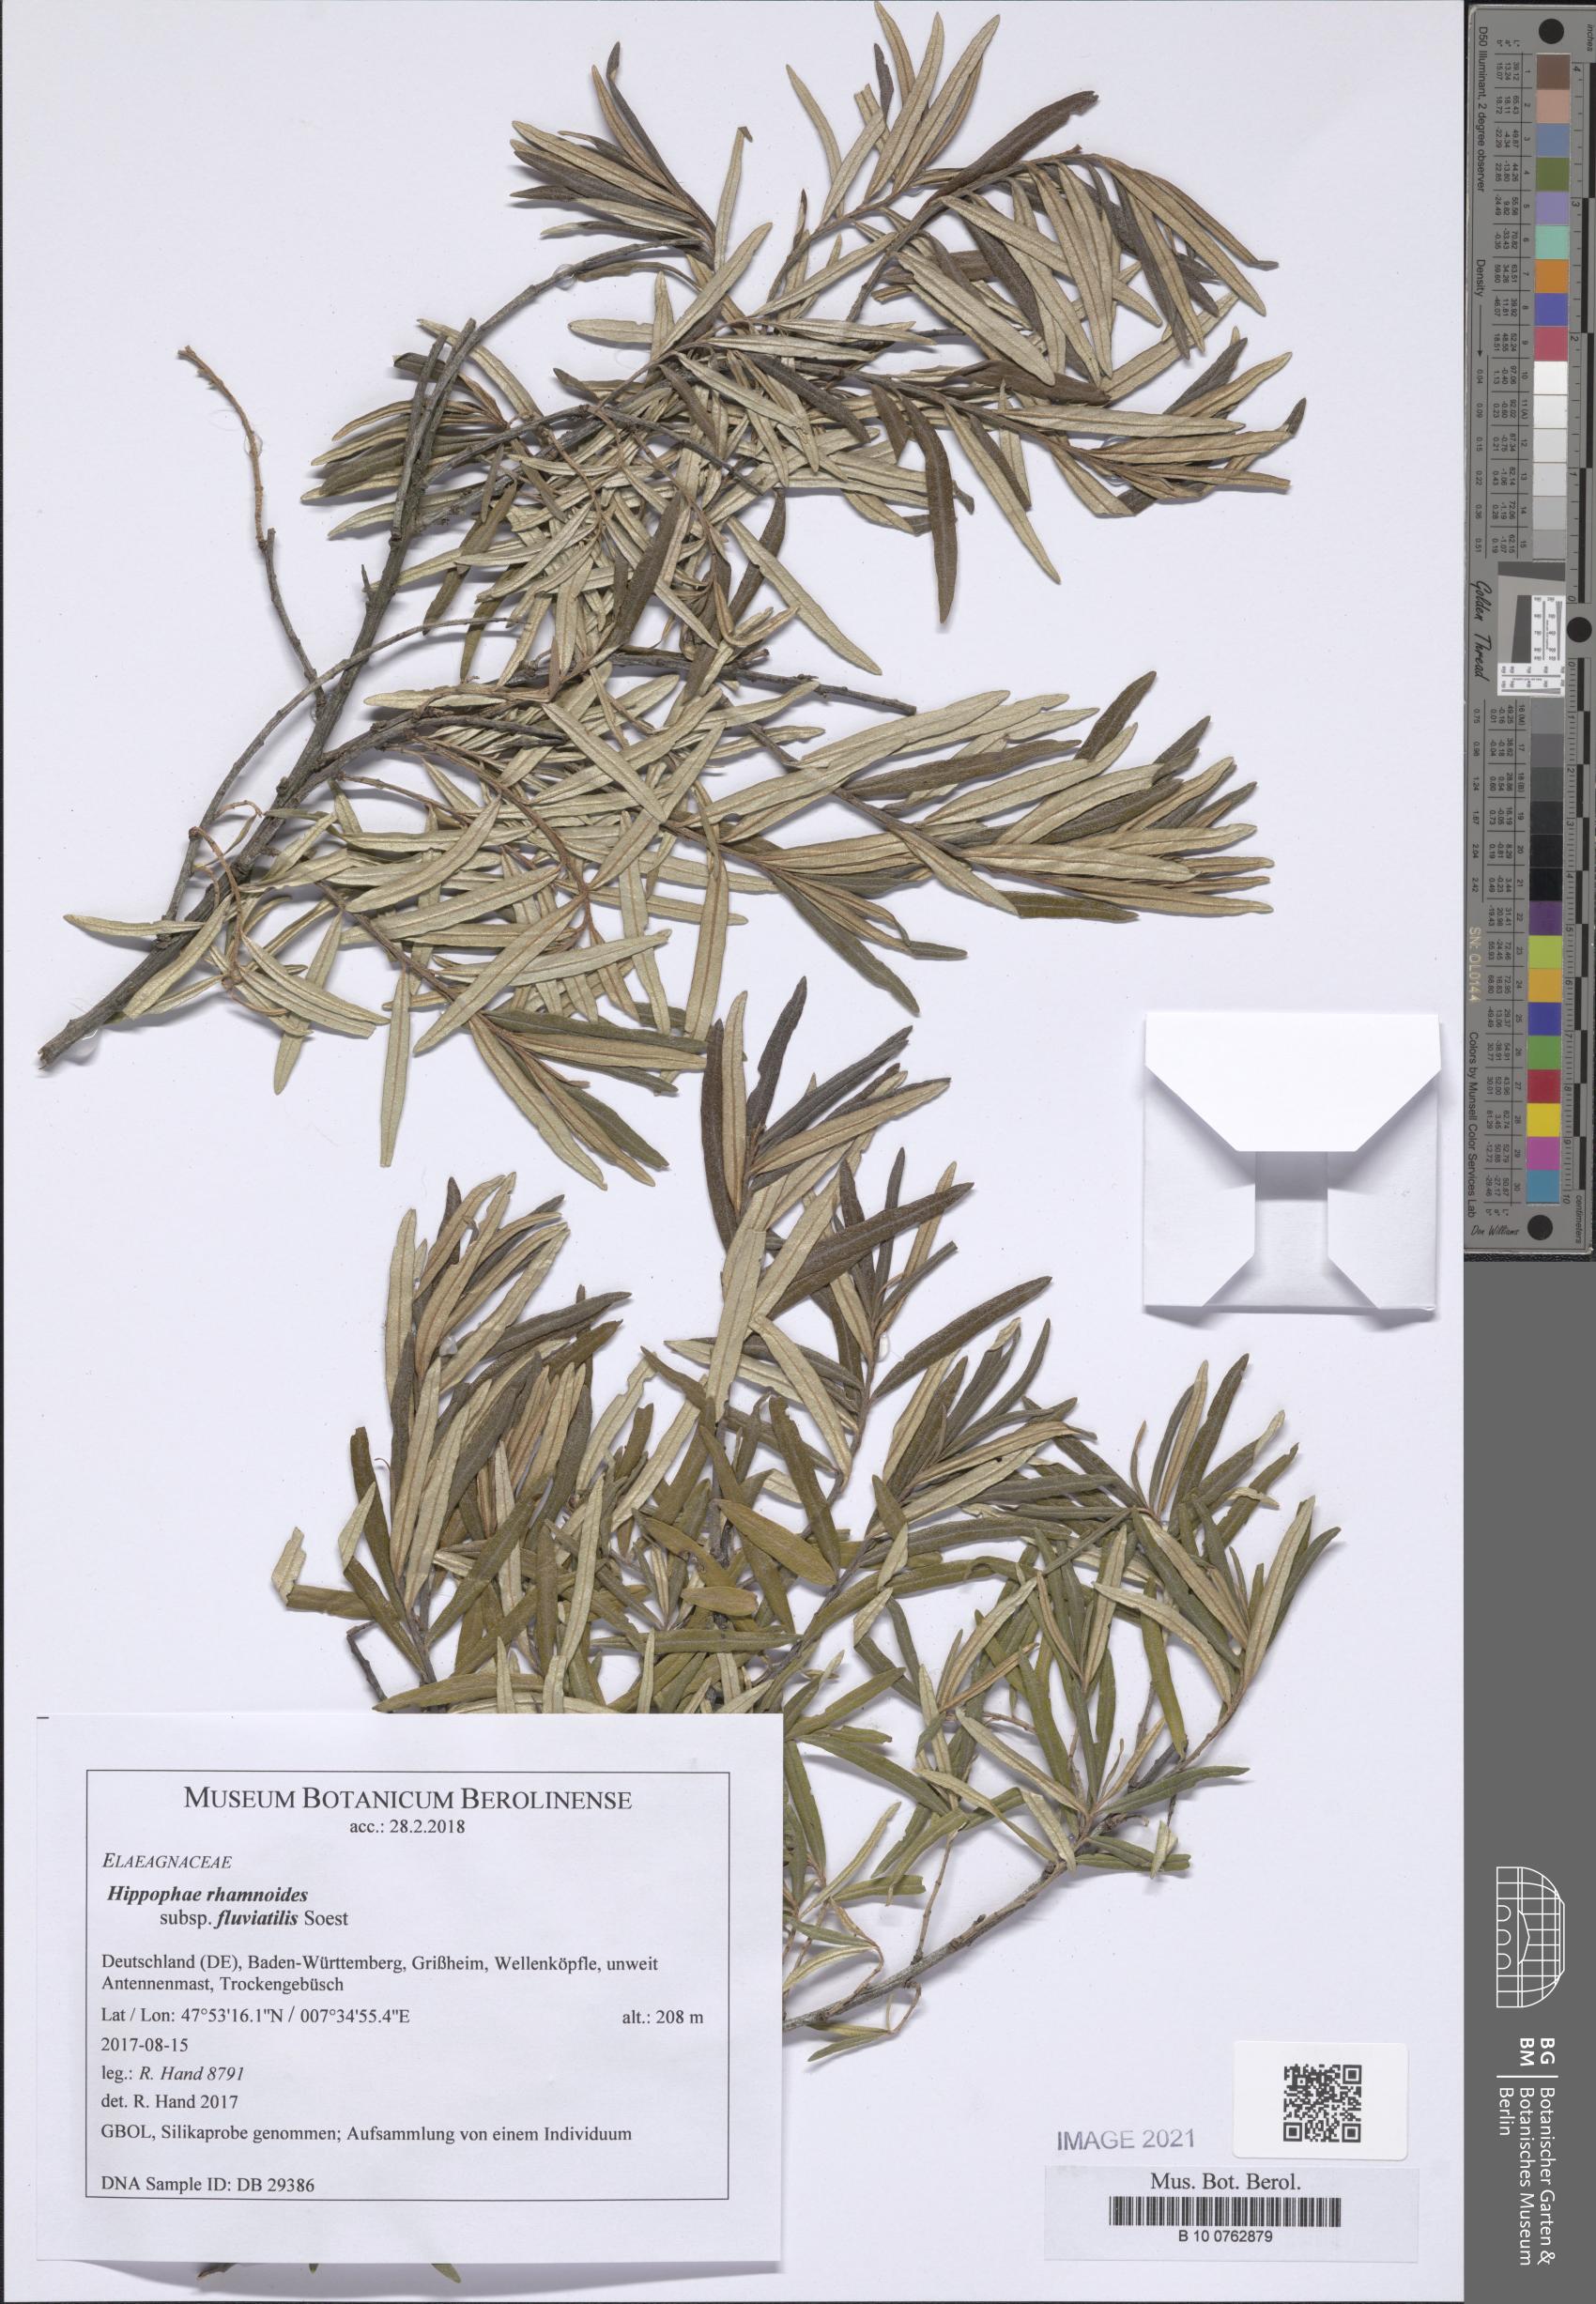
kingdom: Plantae
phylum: Tracheophyta
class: Magnoliopsida
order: Rosales
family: Elaeagnaceae
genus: Hippophae
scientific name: Hippophae rhamnoides
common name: Sea-buckthorn
